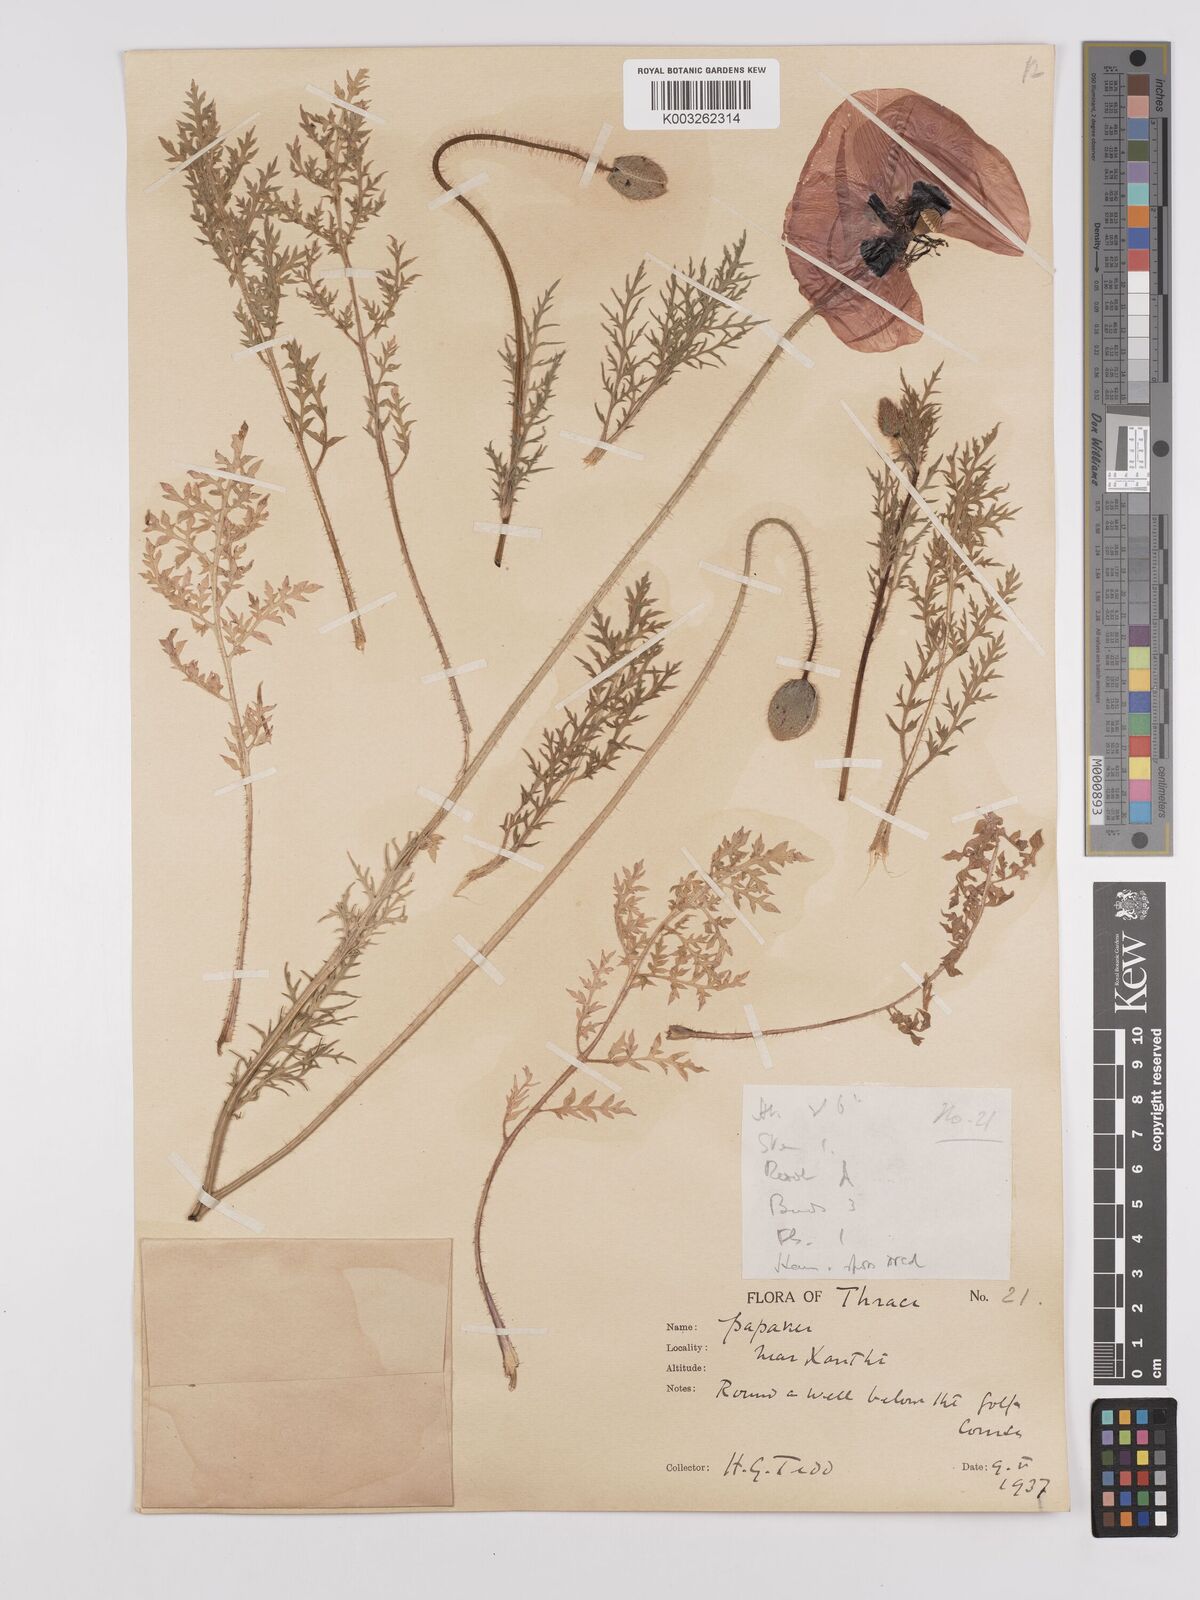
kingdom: Plantae
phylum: Tracheophyta
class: Magnoliopsida
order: Ranunculales
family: Papaveraceae
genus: Papaver
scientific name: Papaver rhoeas
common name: Corn poppy
